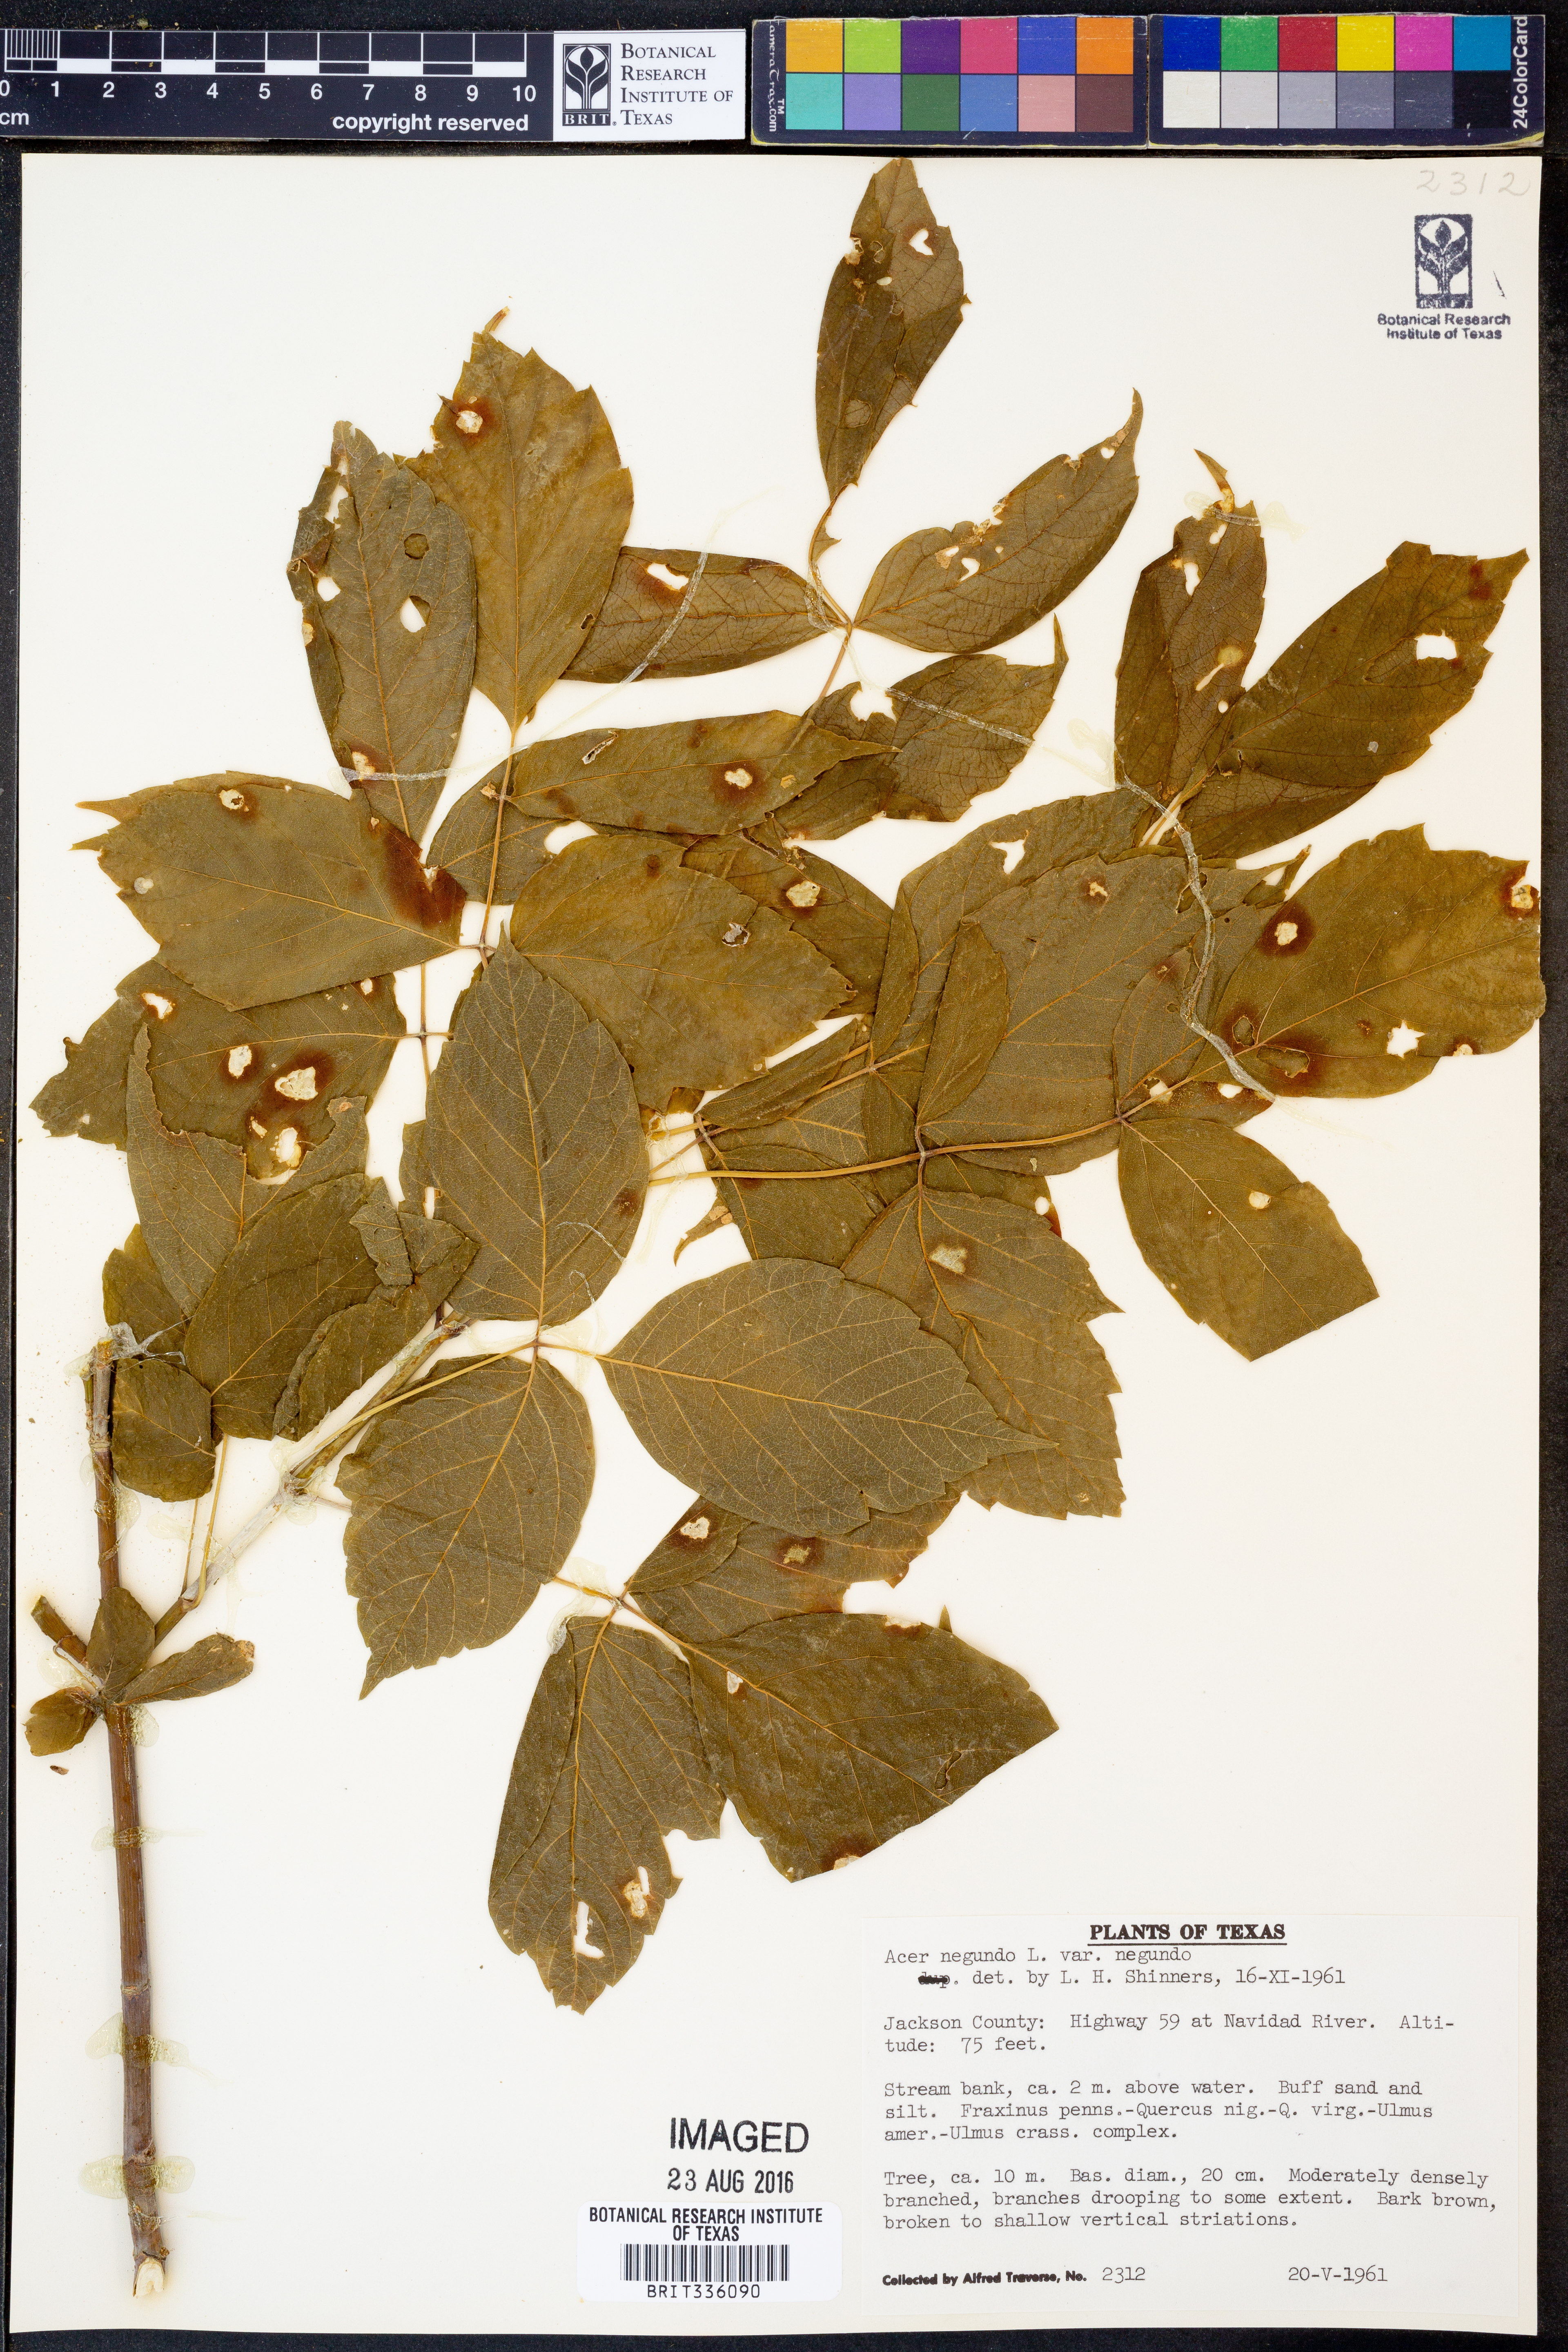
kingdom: Plantae
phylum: Tracheophyta
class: Magnoliopsida
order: Sapindales
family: Sapindaceae
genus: Acer
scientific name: Acer negundo
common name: Ashleaf maple
